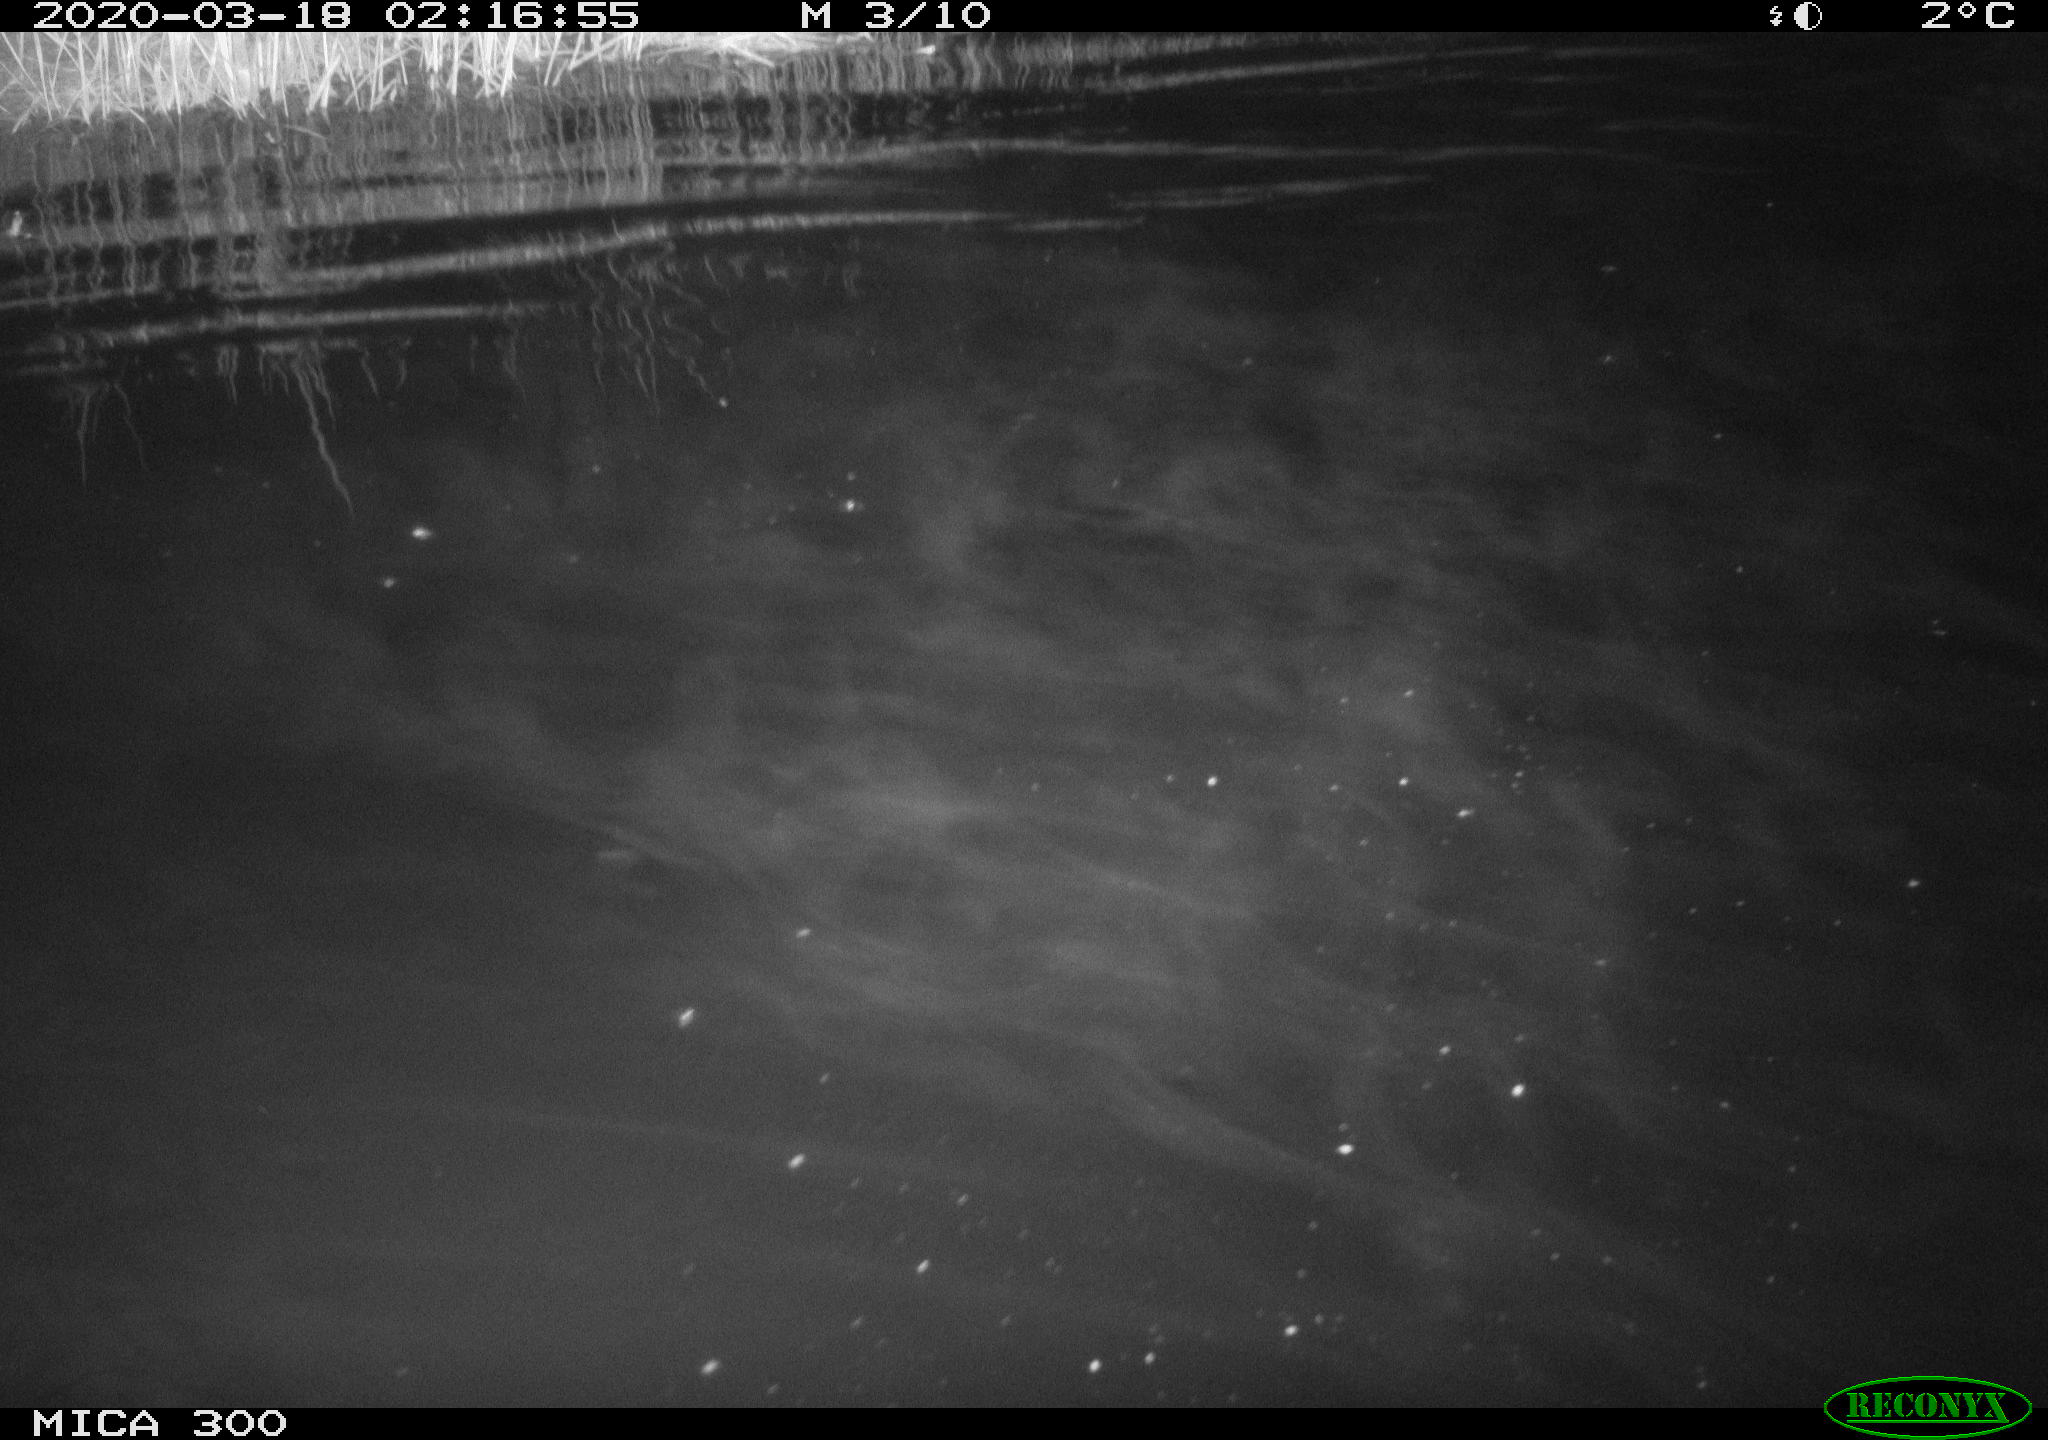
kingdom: Animalia
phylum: Chordata
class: Mammalia
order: Rodentia
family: Castoridae
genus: Castor
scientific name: Castor fiber
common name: Eurasian beaver
